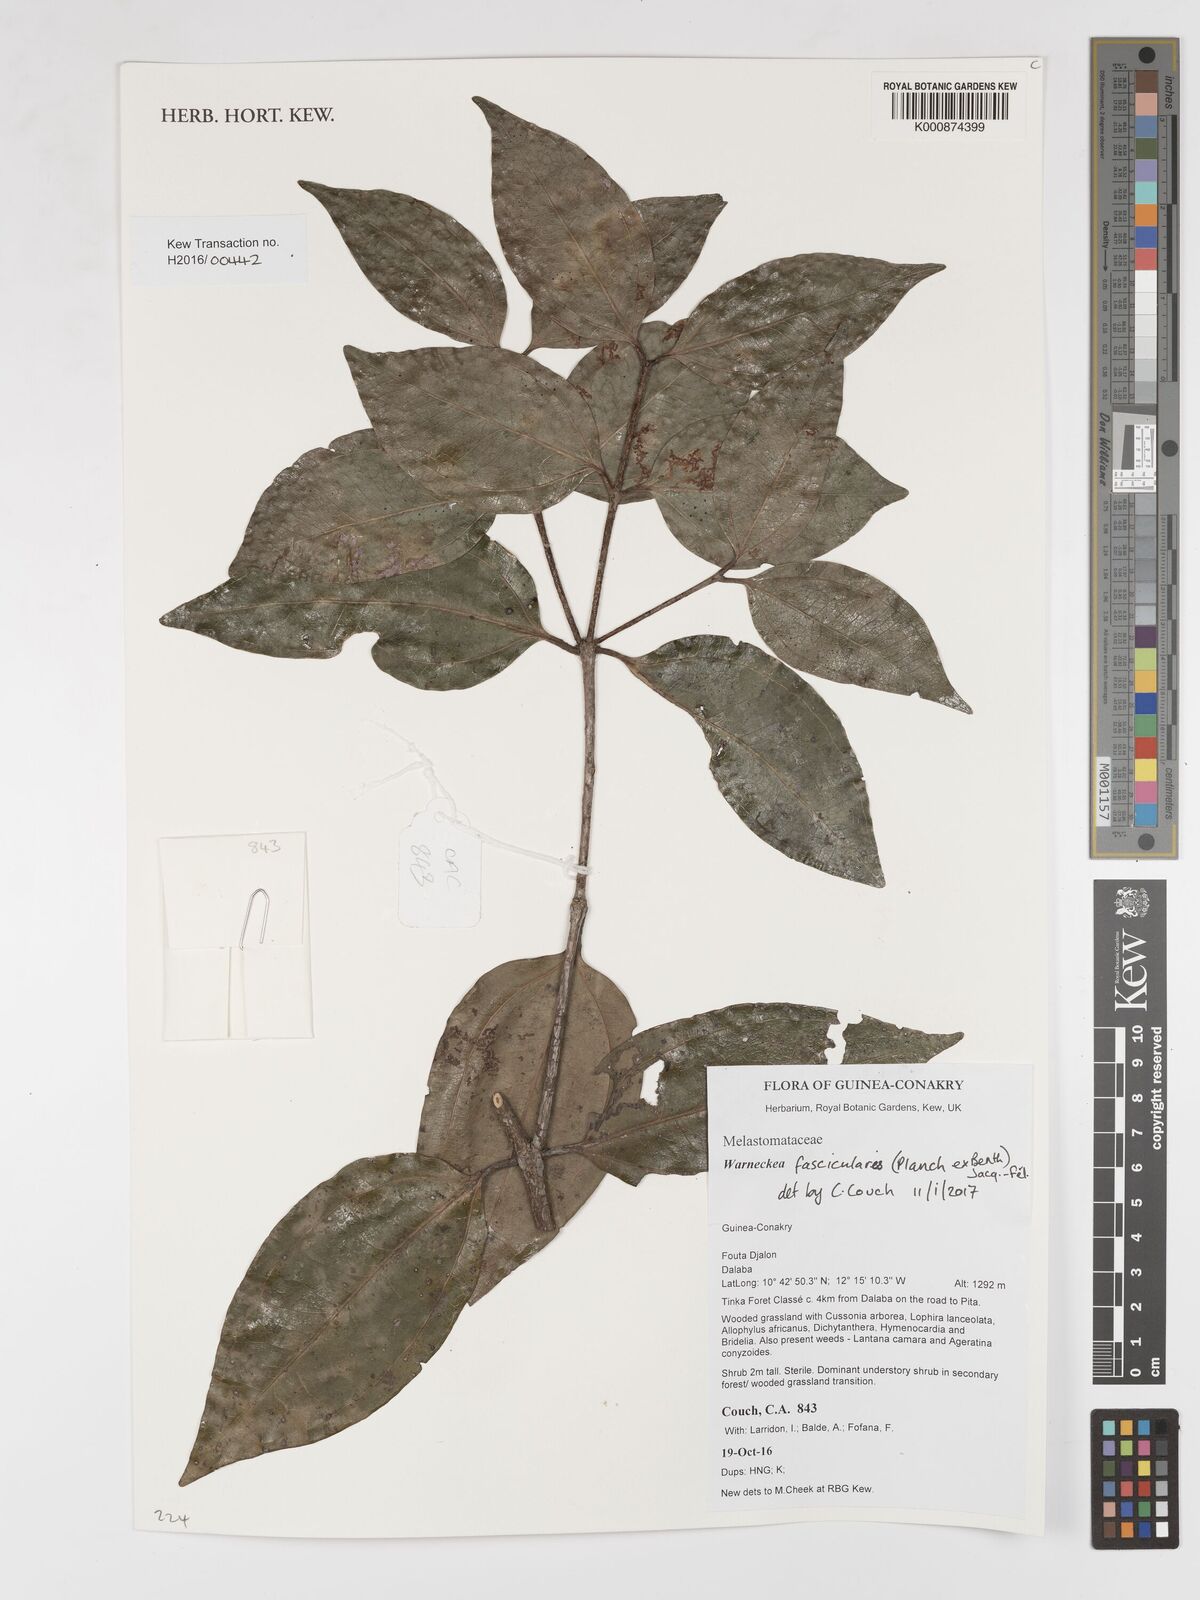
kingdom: Plantae
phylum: Tracheophyta
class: Magnoliopsida
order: Myrtales
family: Melastomataceae
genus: Warneckea
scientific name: Warneckea fascicularis
